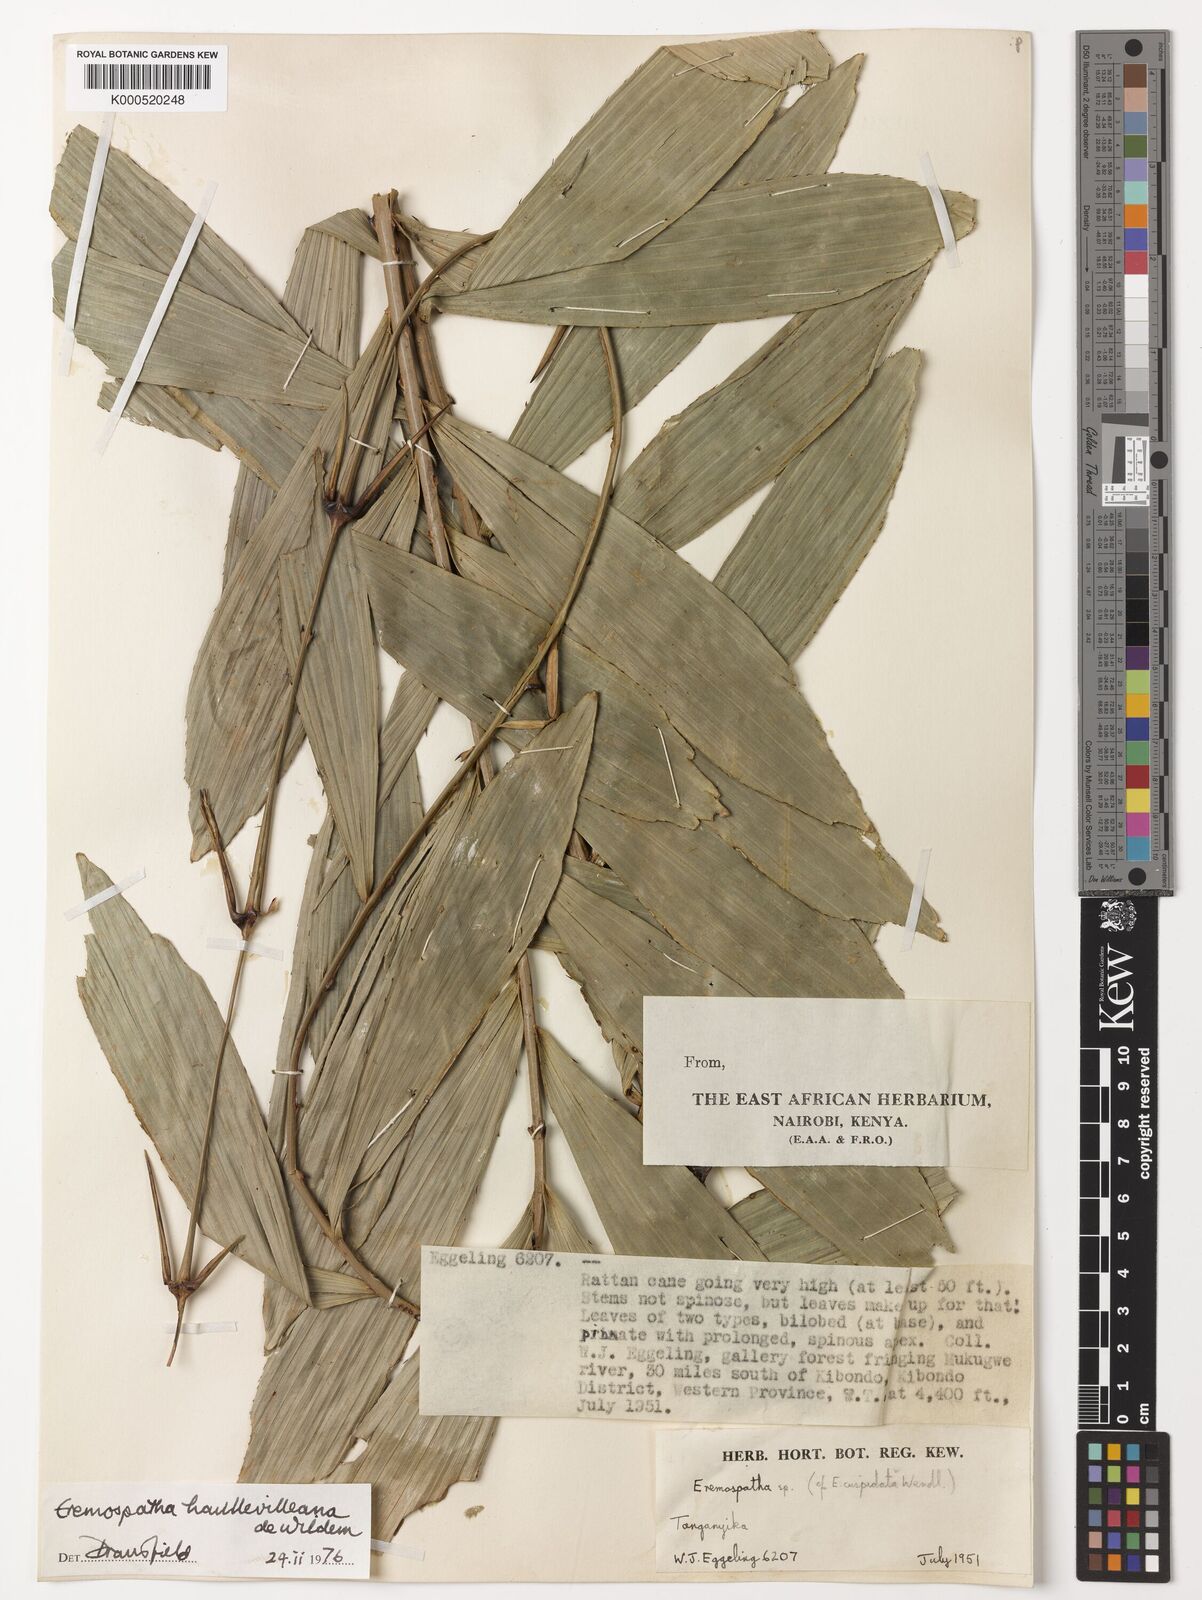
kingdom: Plantae
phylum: Tracheophyta
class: Liliopsida
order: Arecales
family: Arecaceae
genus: Eremospatha
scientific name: Eremospatha haullevilleana
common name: Rattan
